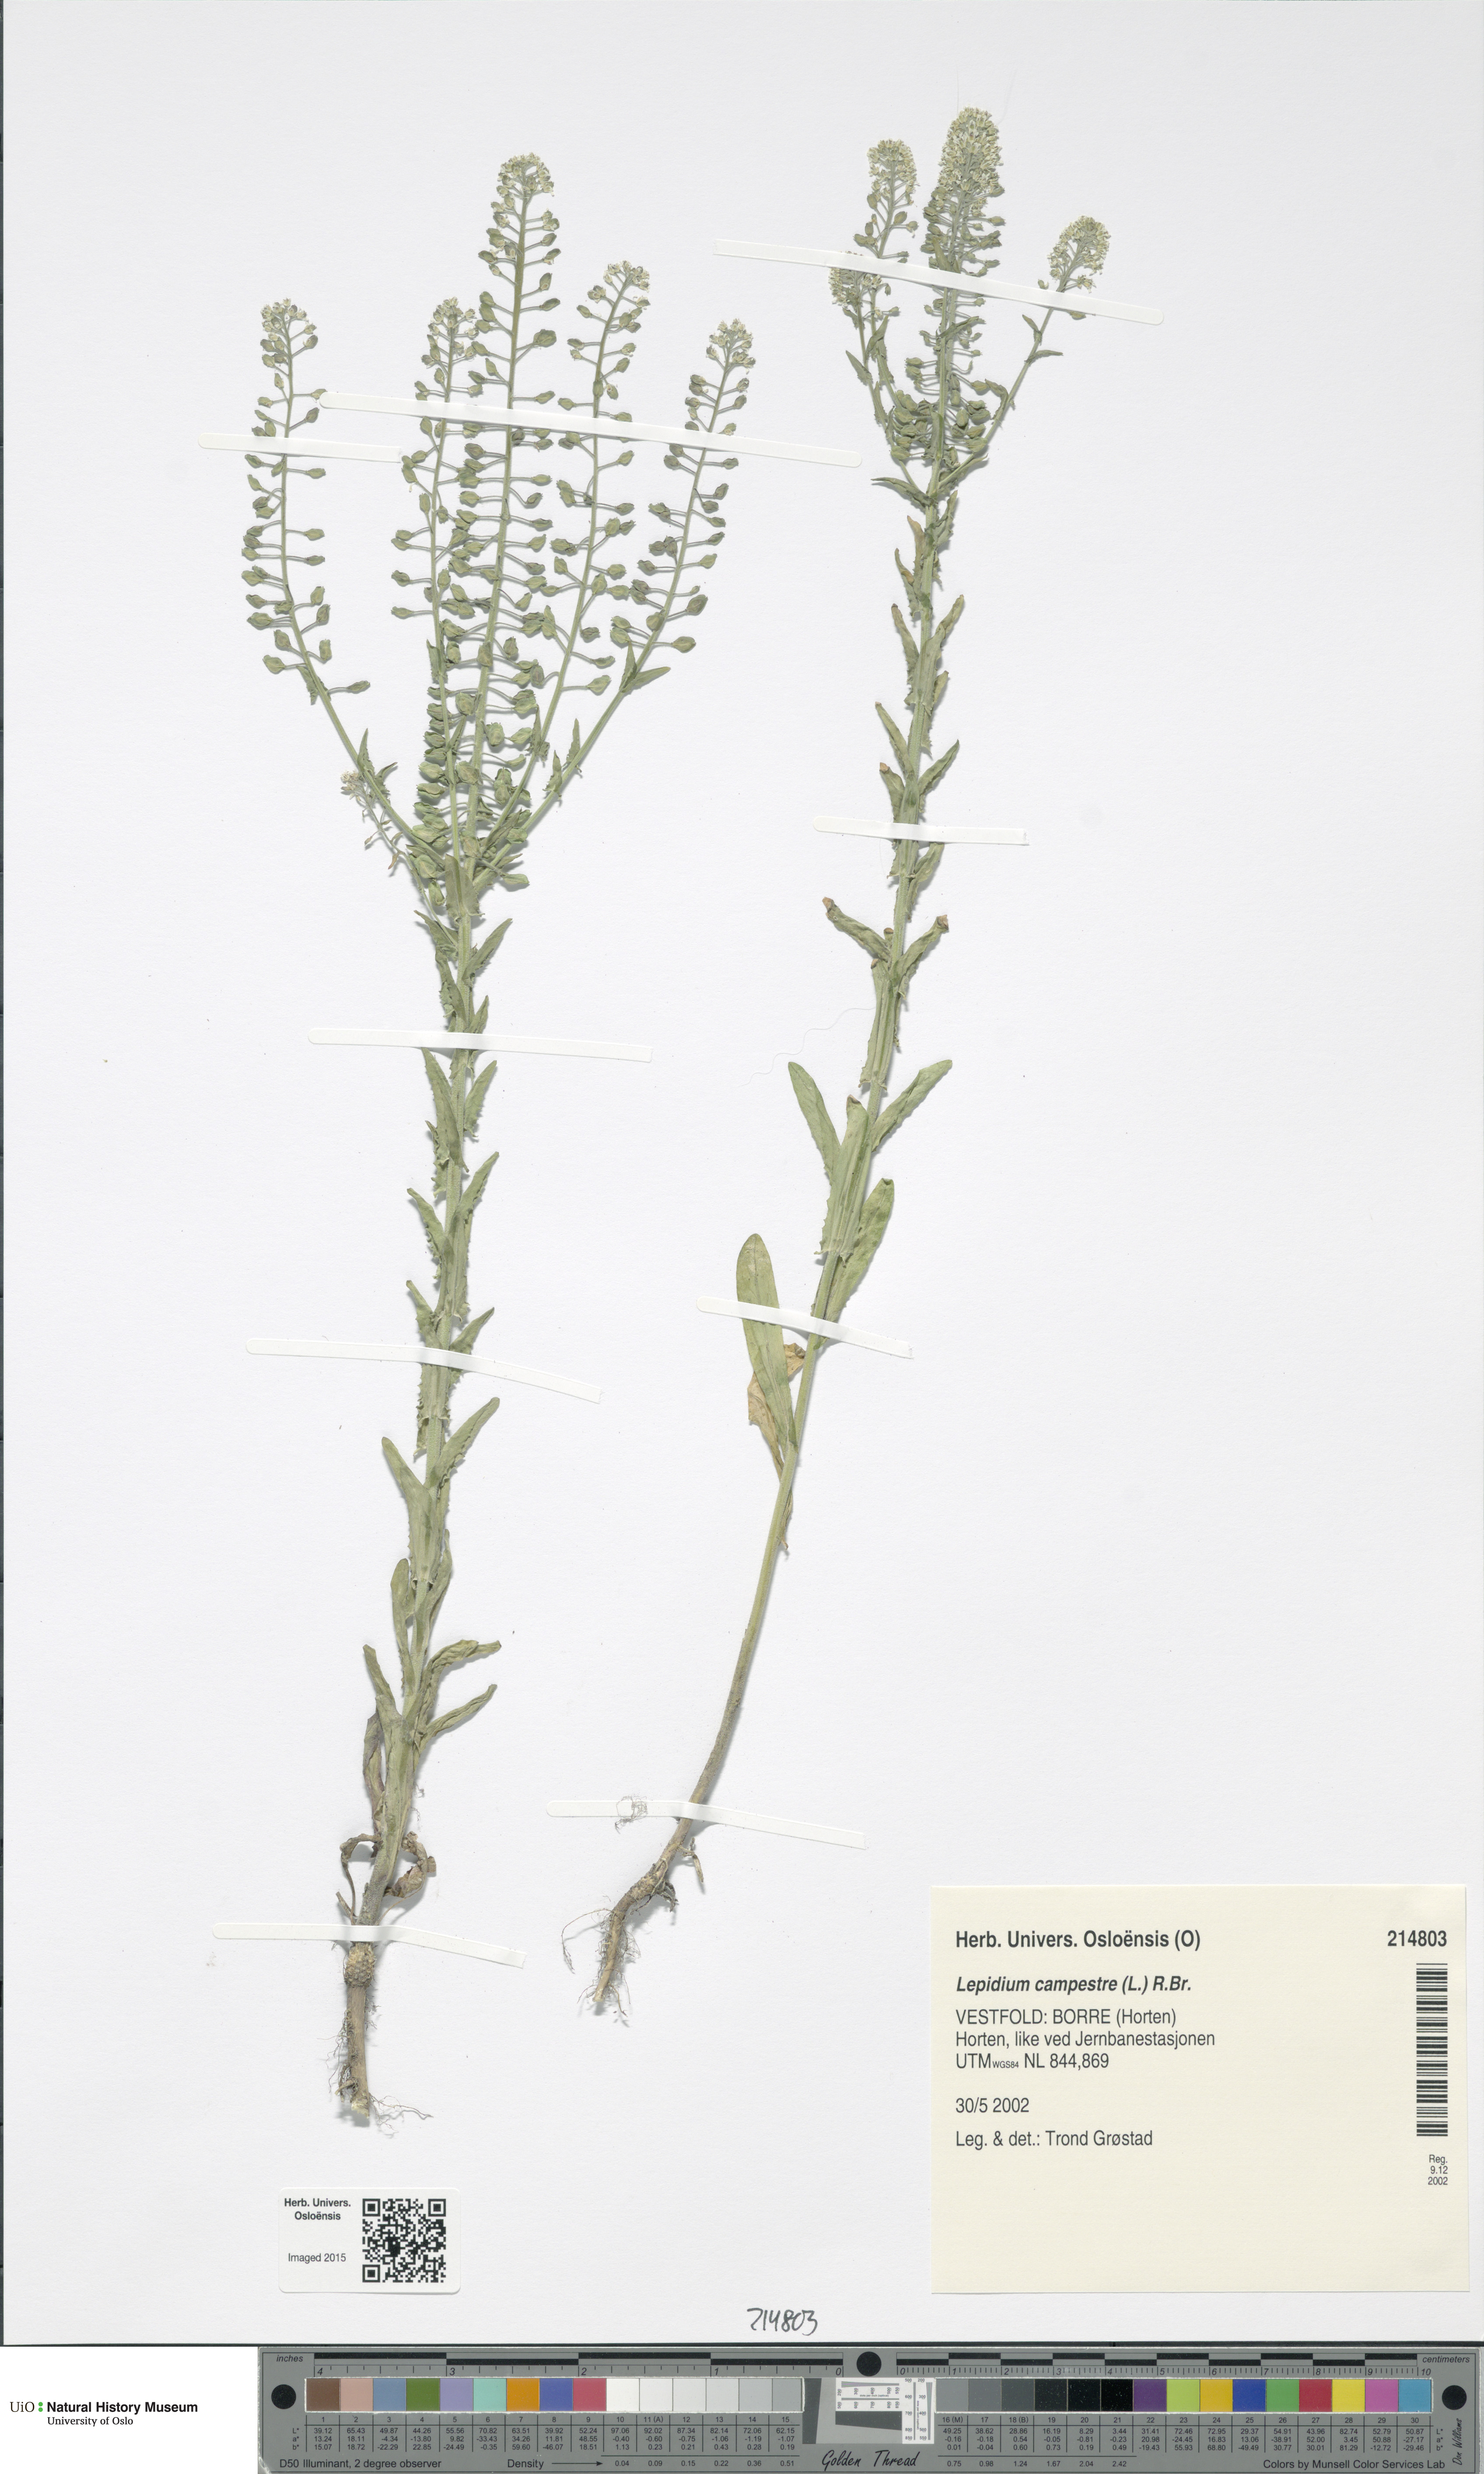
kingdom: Plantae
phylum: Tracheophyta
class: Magnoliopsida
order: Brassicales
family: Brassicaceae
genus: Lepidium
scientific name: Lepidium campestre
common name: Field pepperwort
